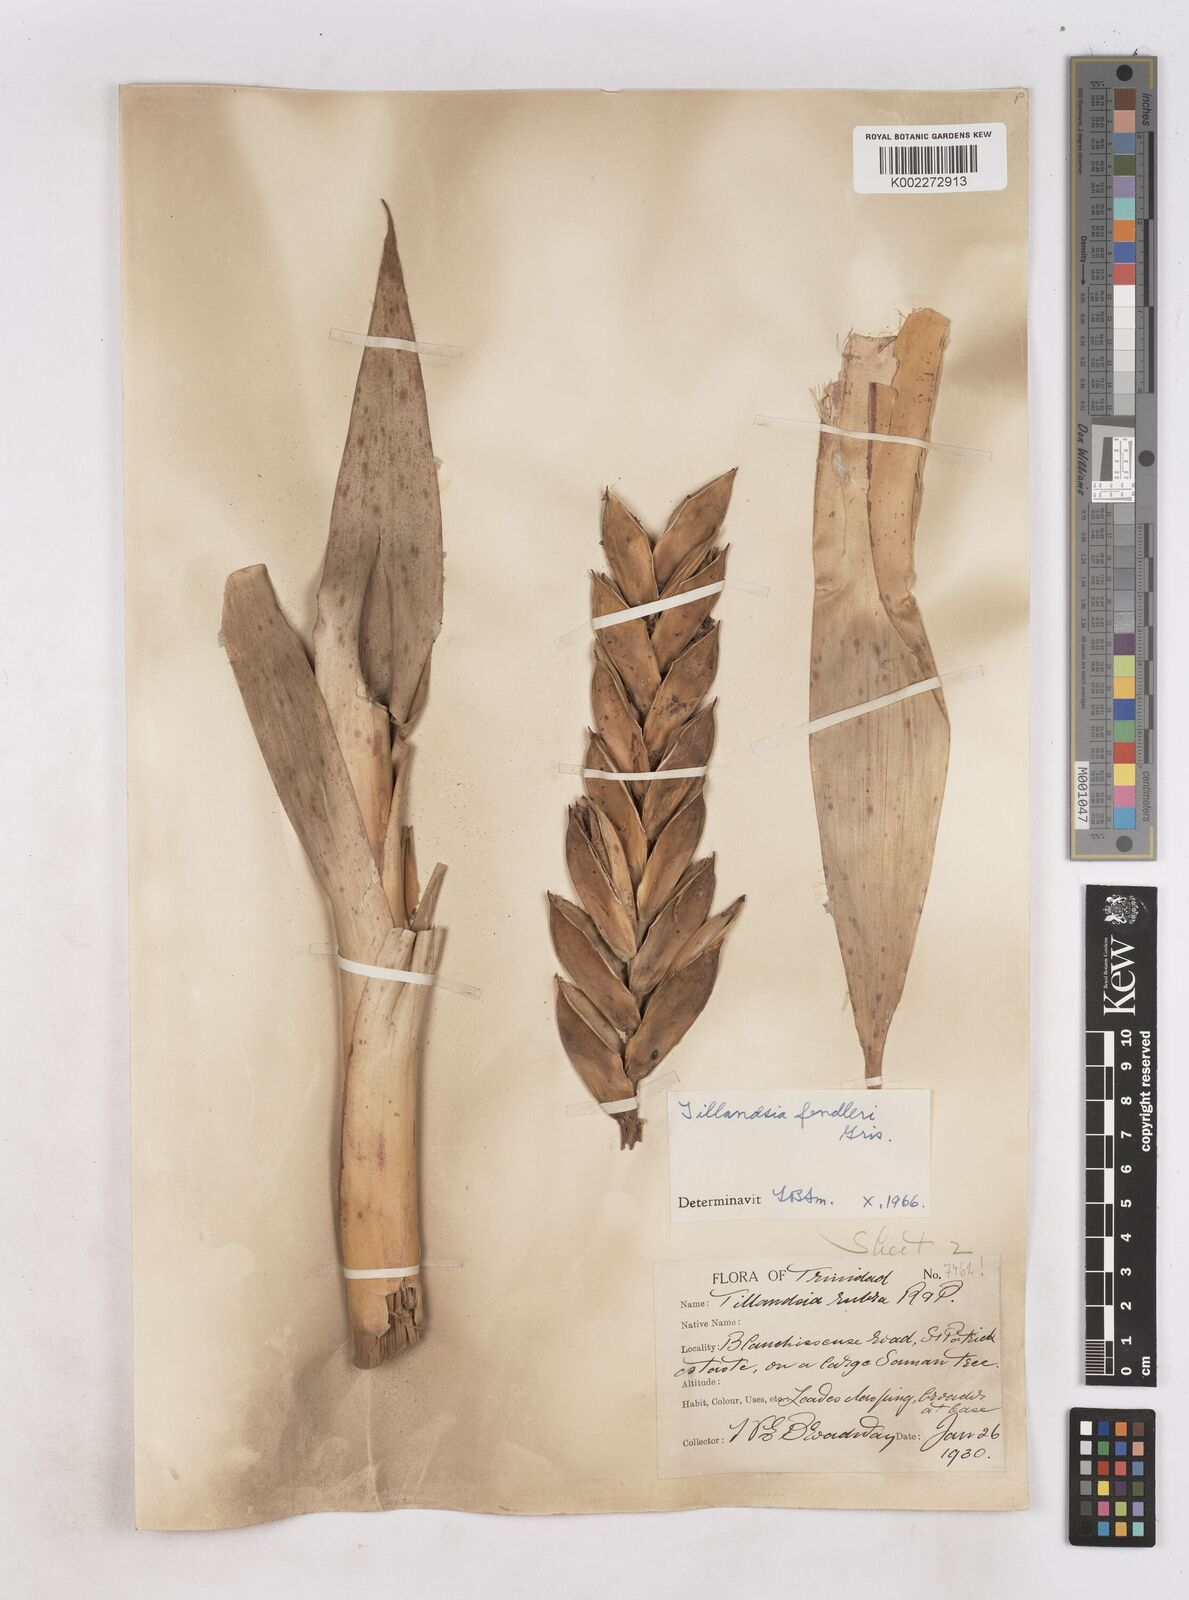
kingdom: Plantae
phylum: Tracheophyta
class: Liliopsida
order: Poales
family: Bromeliaceae
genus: Tillandsia
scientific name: Tillandsia fendleri
